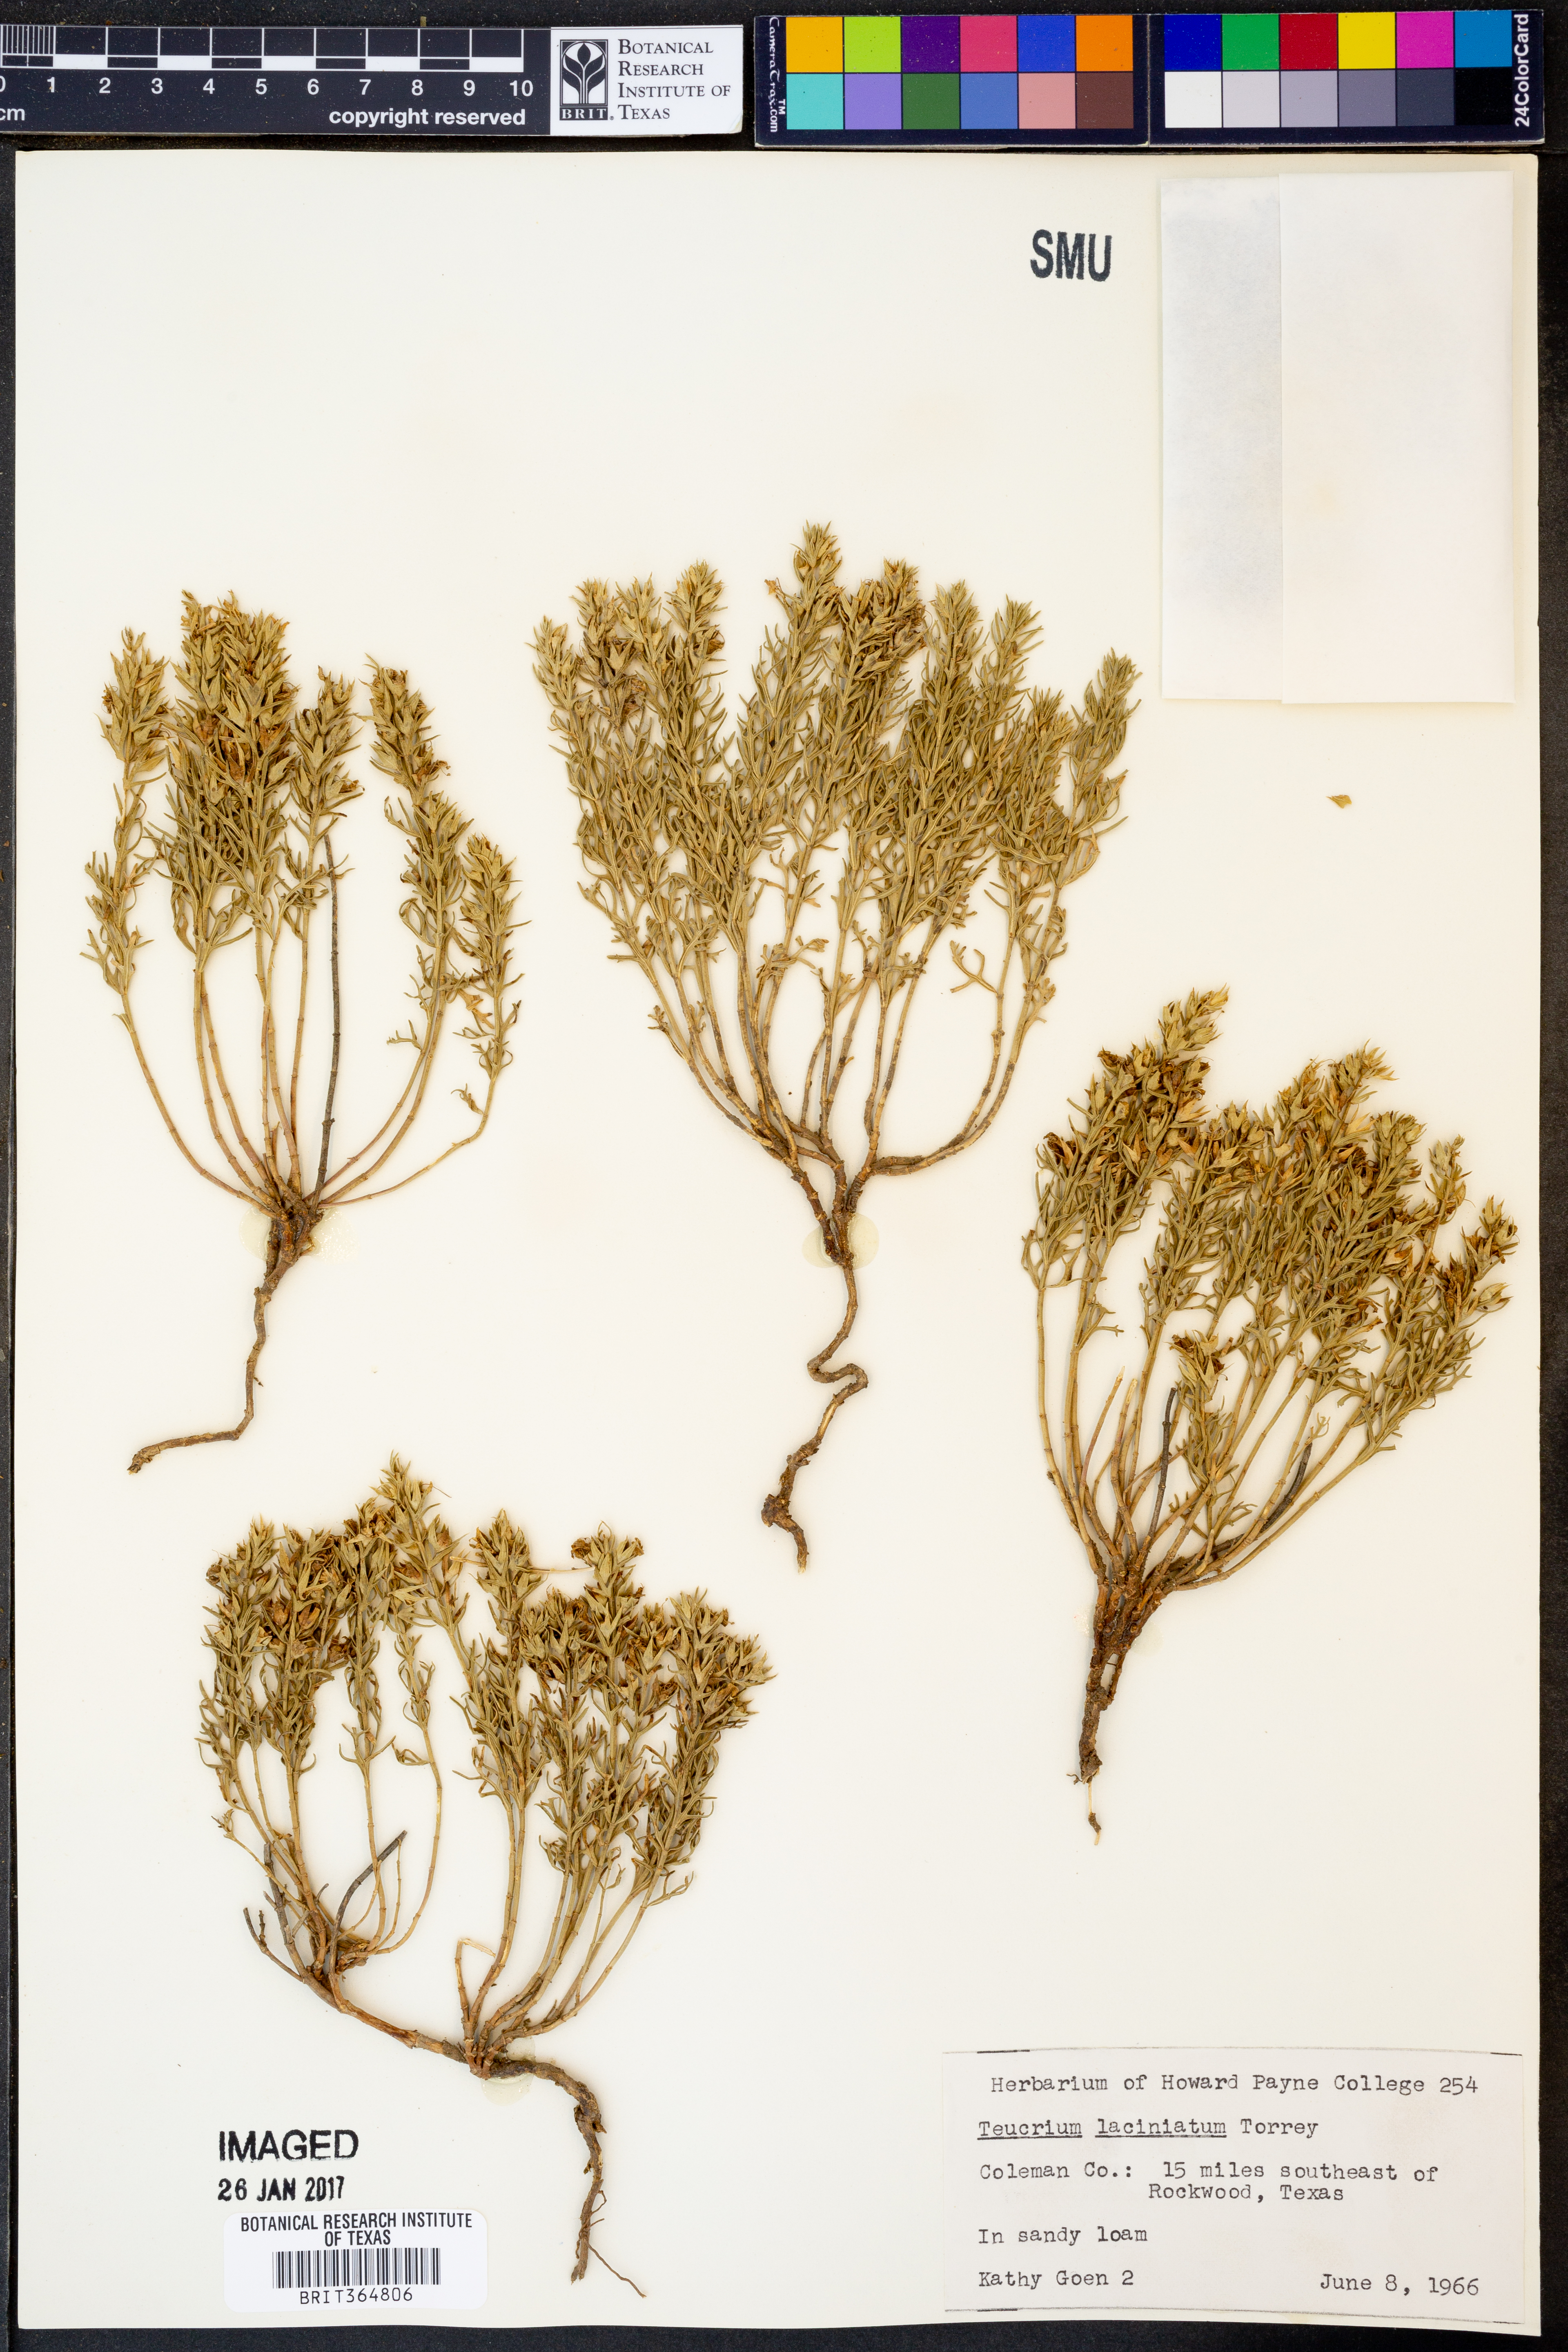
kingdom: Plantae
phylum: Tracheophyta
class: Magnoliopsida
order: Lamiales
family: Lamiaceae
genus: Teucrium
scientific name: Teucrium laciniatum
